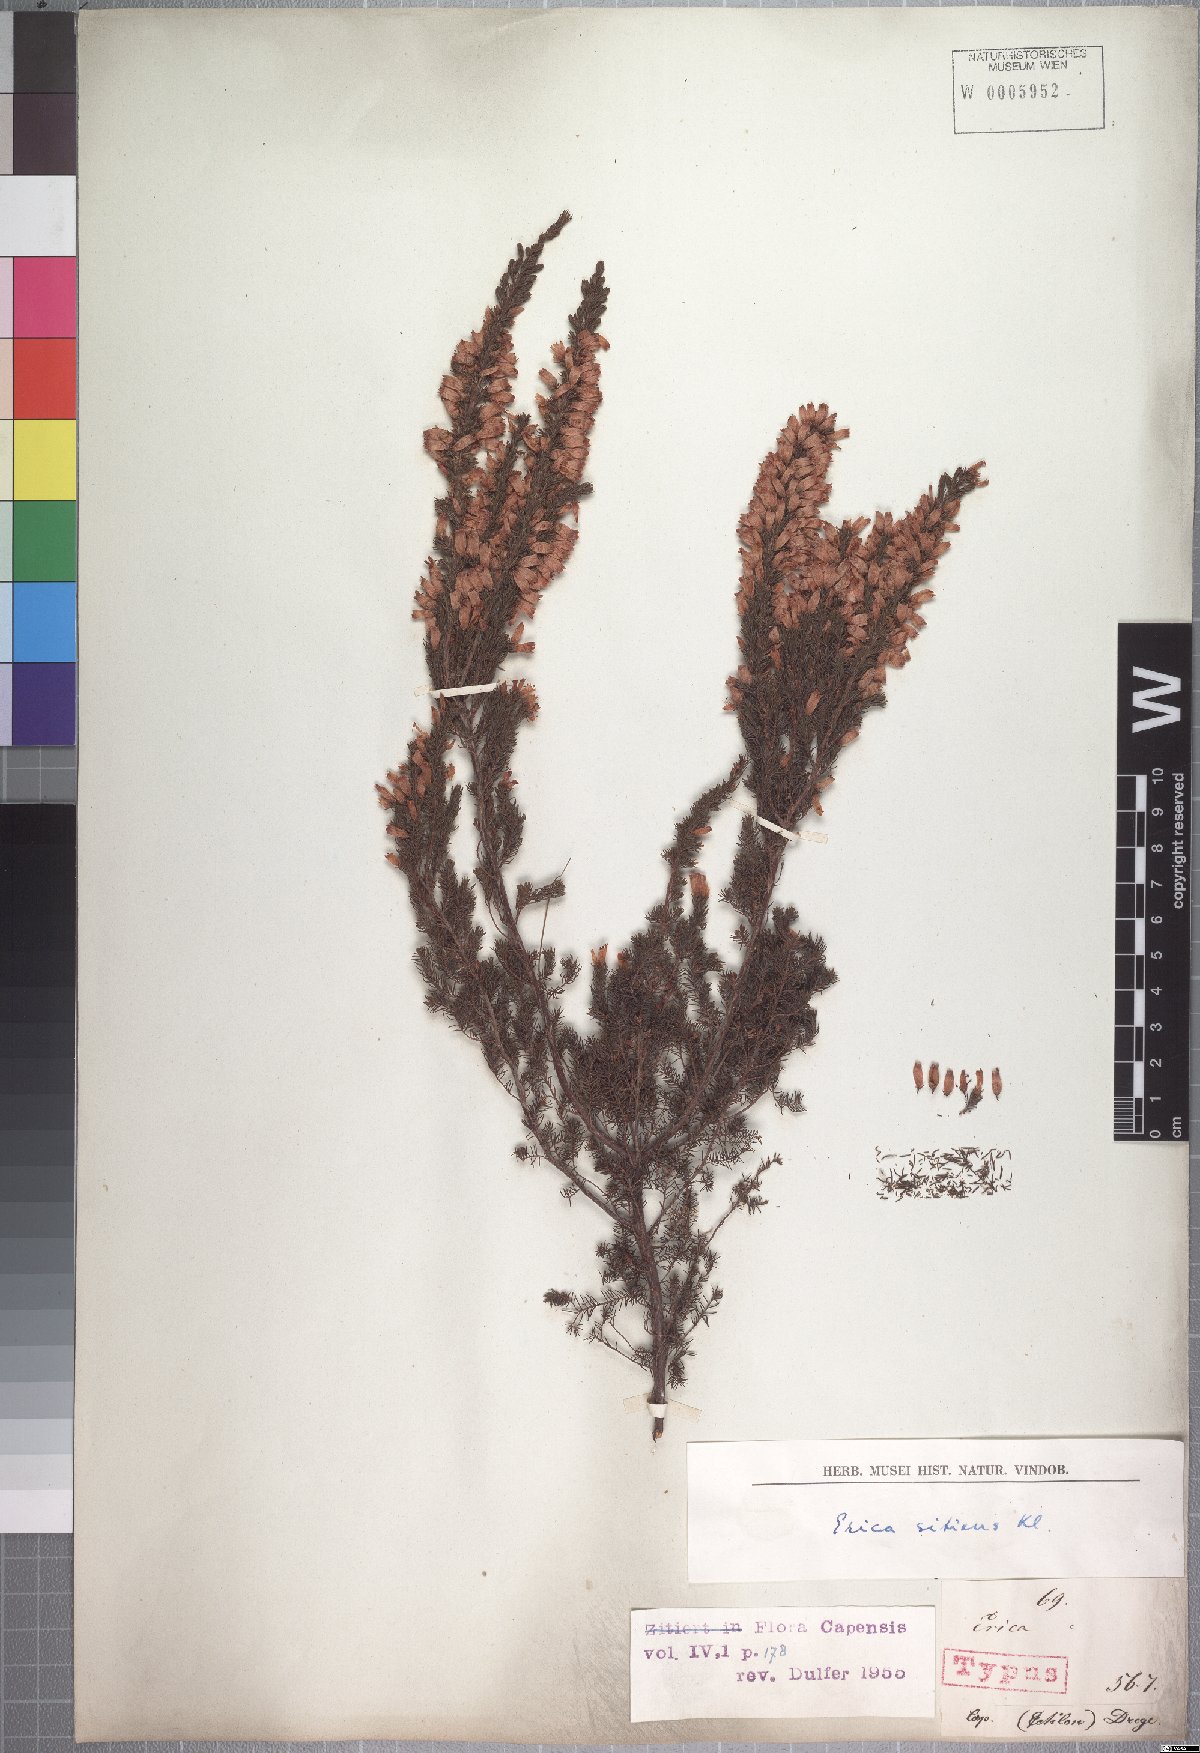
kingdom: Plantae
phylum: Tracheophyta
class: Magnoliopsida
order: Ericales
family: Ericaceae
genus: Erica
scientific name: Erica sitiens
